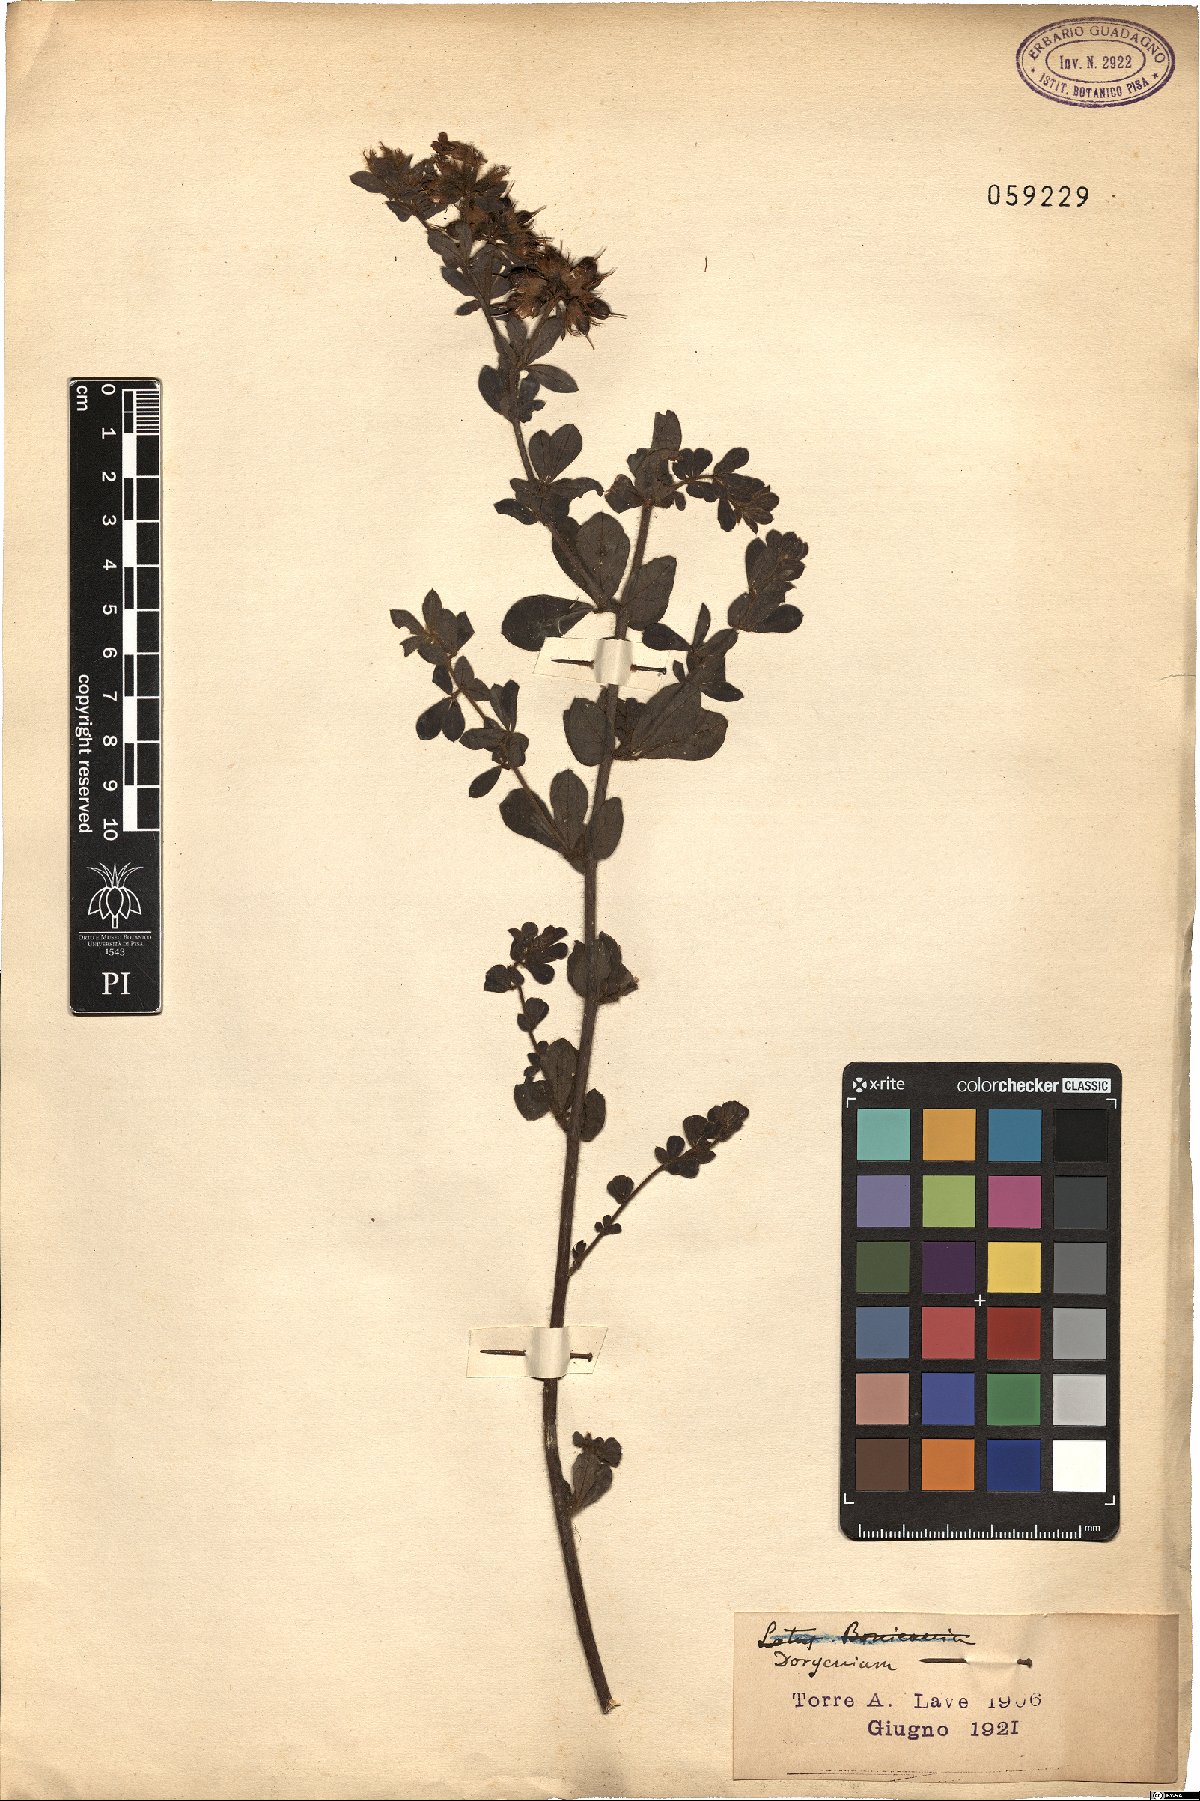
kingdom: Plantae
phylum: Tracheophyta
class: Magnoliopsida
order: Fabales
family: Fabaceae
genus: Lotus
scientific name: Lotus
